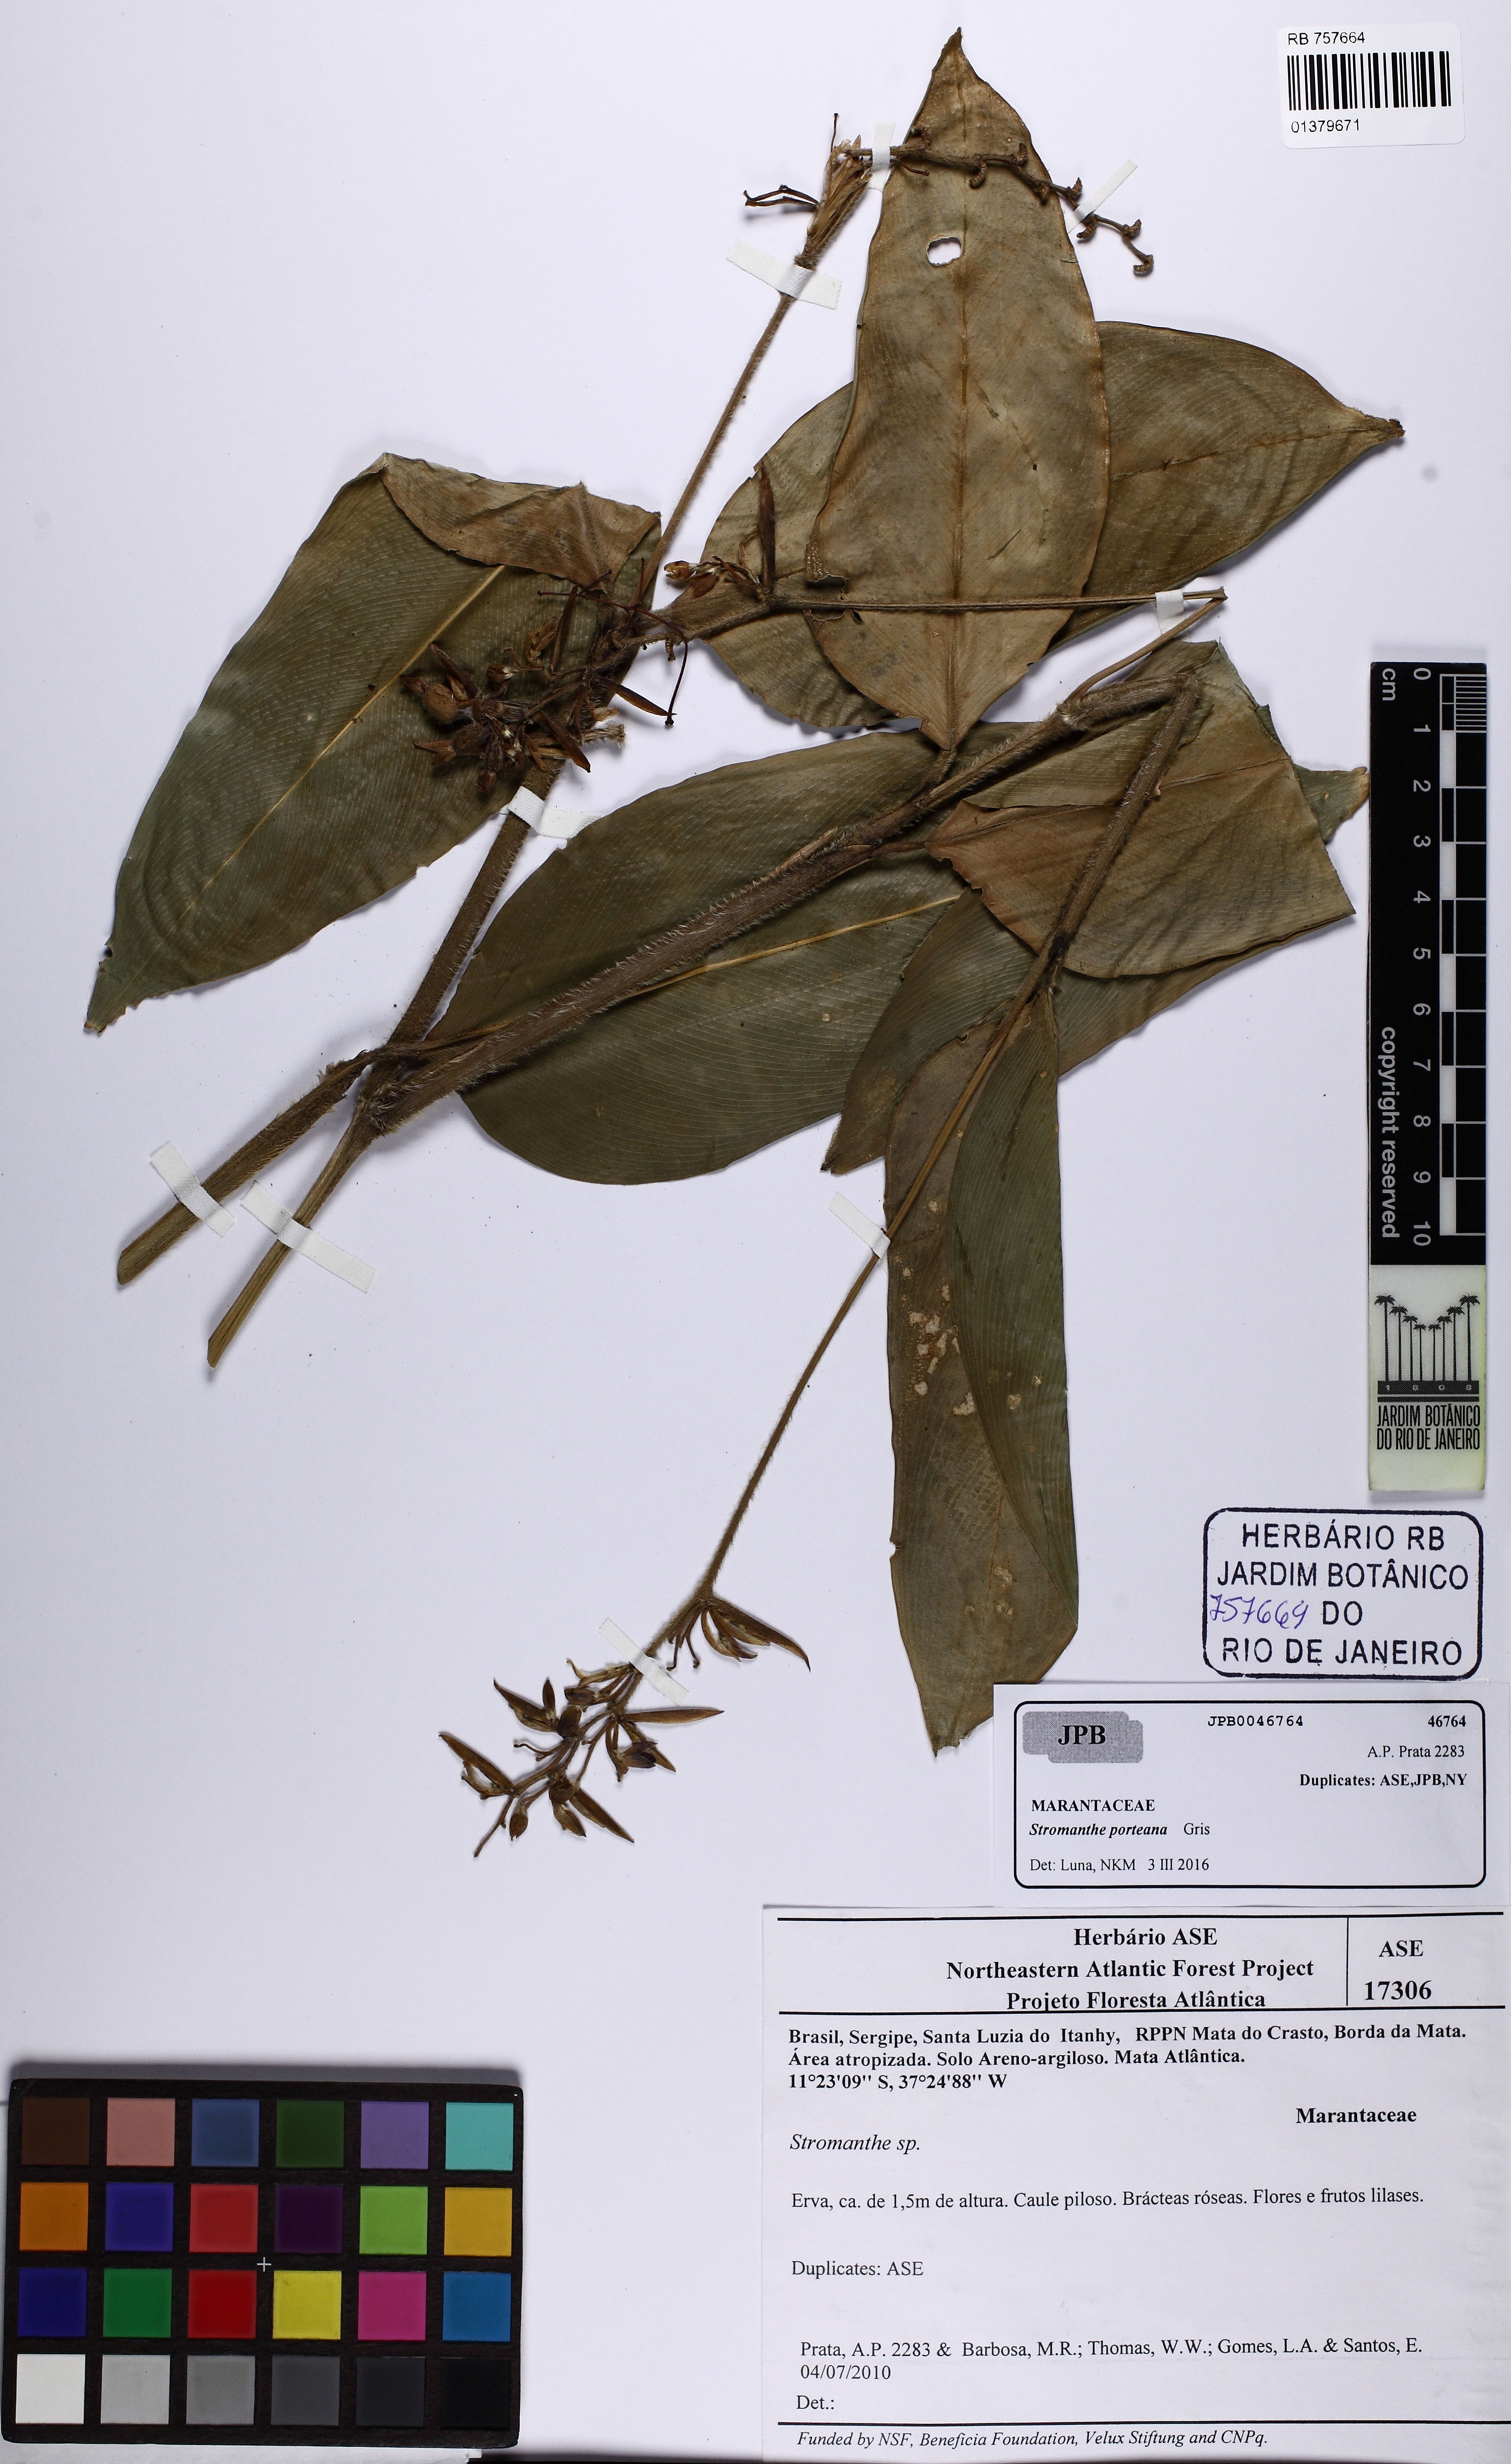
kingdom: Plantae
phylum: Tracheophyta
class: Liliopsida
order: Zingiberales
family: Marantaceae
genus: Stromanthe
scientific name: Stromanthe porteana
